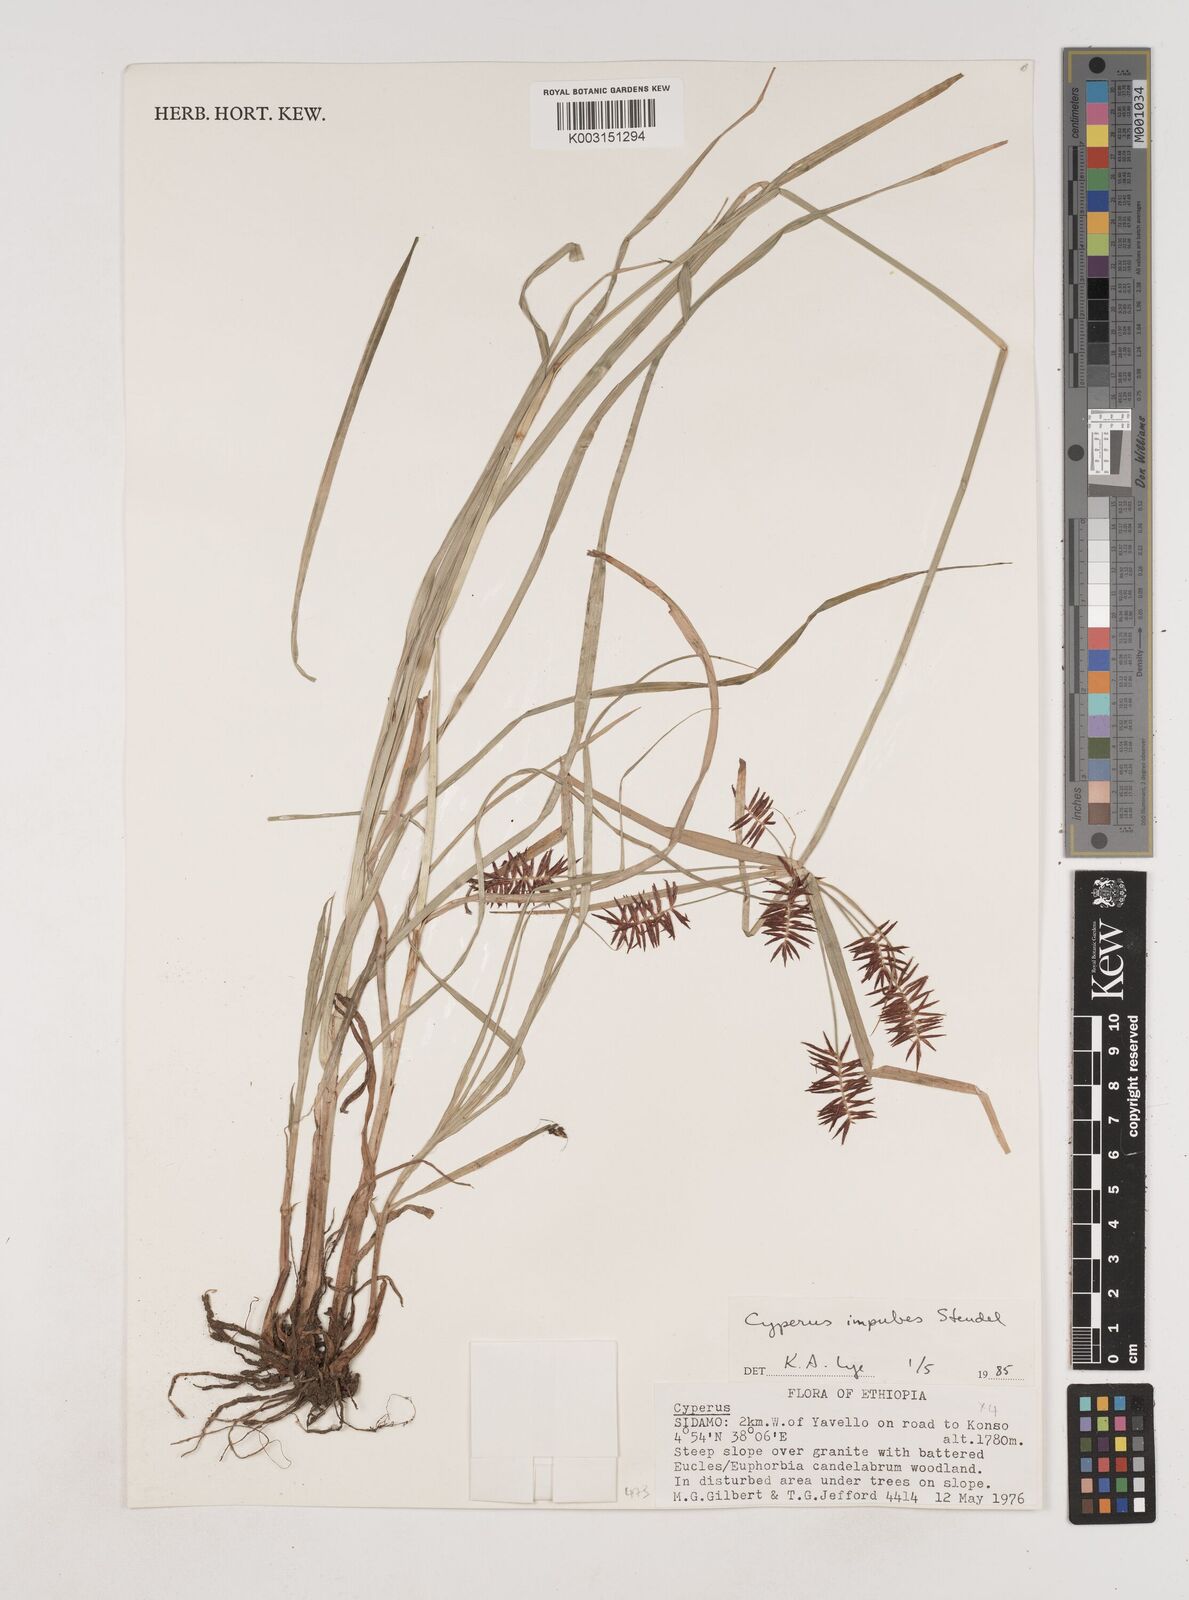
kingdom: Plantae
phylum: Tracheophyta
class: Liliopsida
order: Poales
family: Cyperaceae
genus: Cyperus
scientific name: Cyperus impubes
